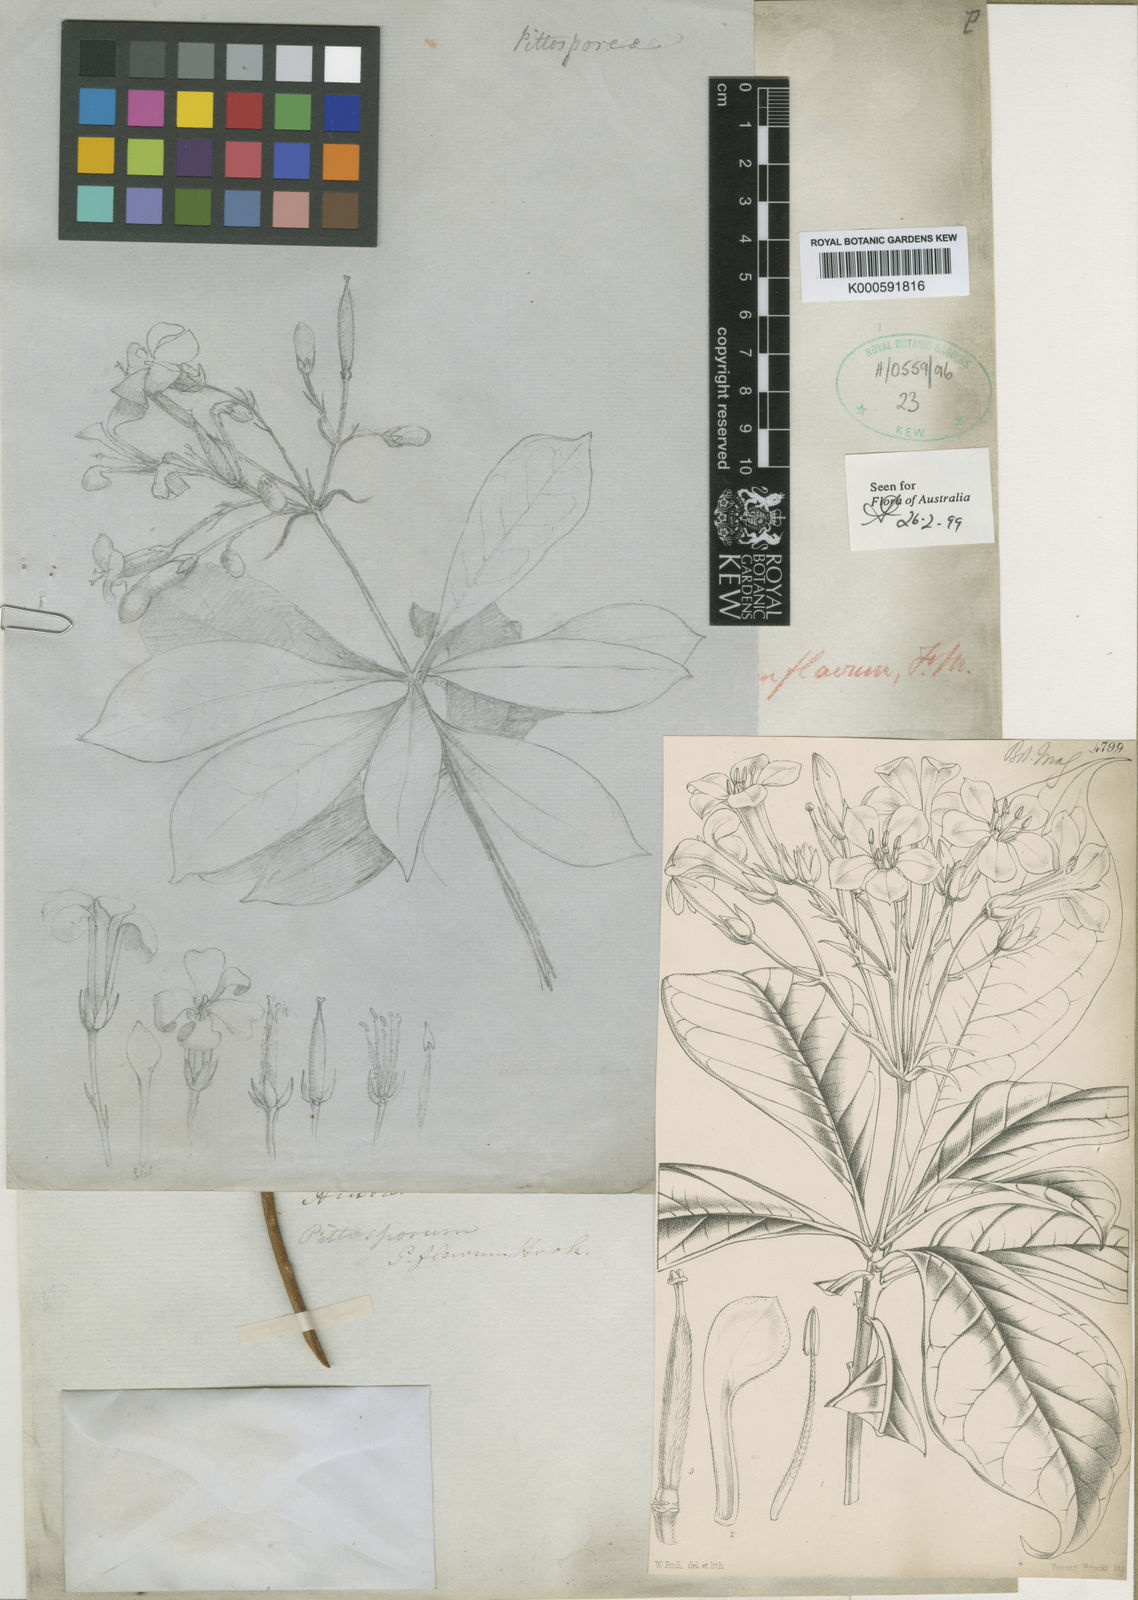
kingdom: Plantae
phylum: Tracheophyta
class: Magnoliopsida
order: Apiales
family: Pittosporaceae
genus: Hymenosporum
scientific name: Hymenosporum flavum
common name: Native frangipani
